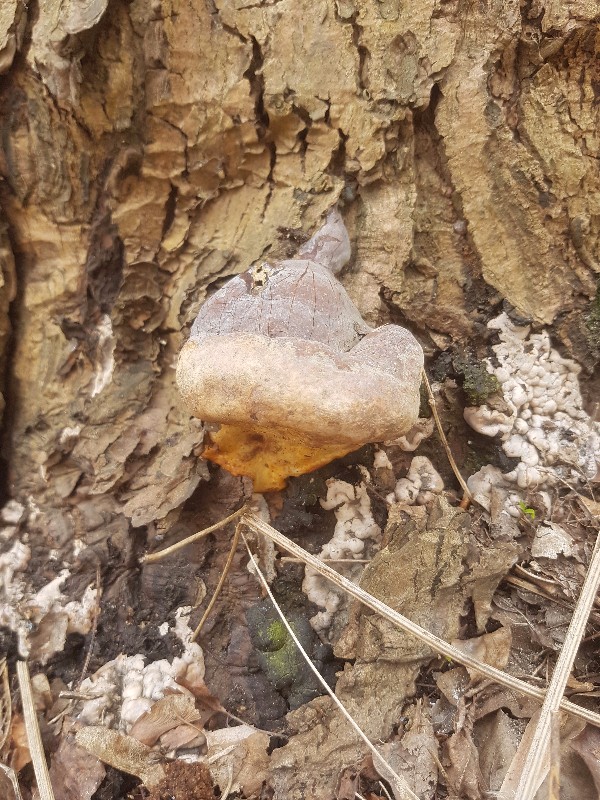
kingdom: Fungi
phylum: Basidiomycota
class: Agaricomycetes
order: Polyporales
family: Polyporaceae
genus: Ganoderma
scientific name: Ganoderma pfeifferi
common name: kobberrød lakporesvamp
